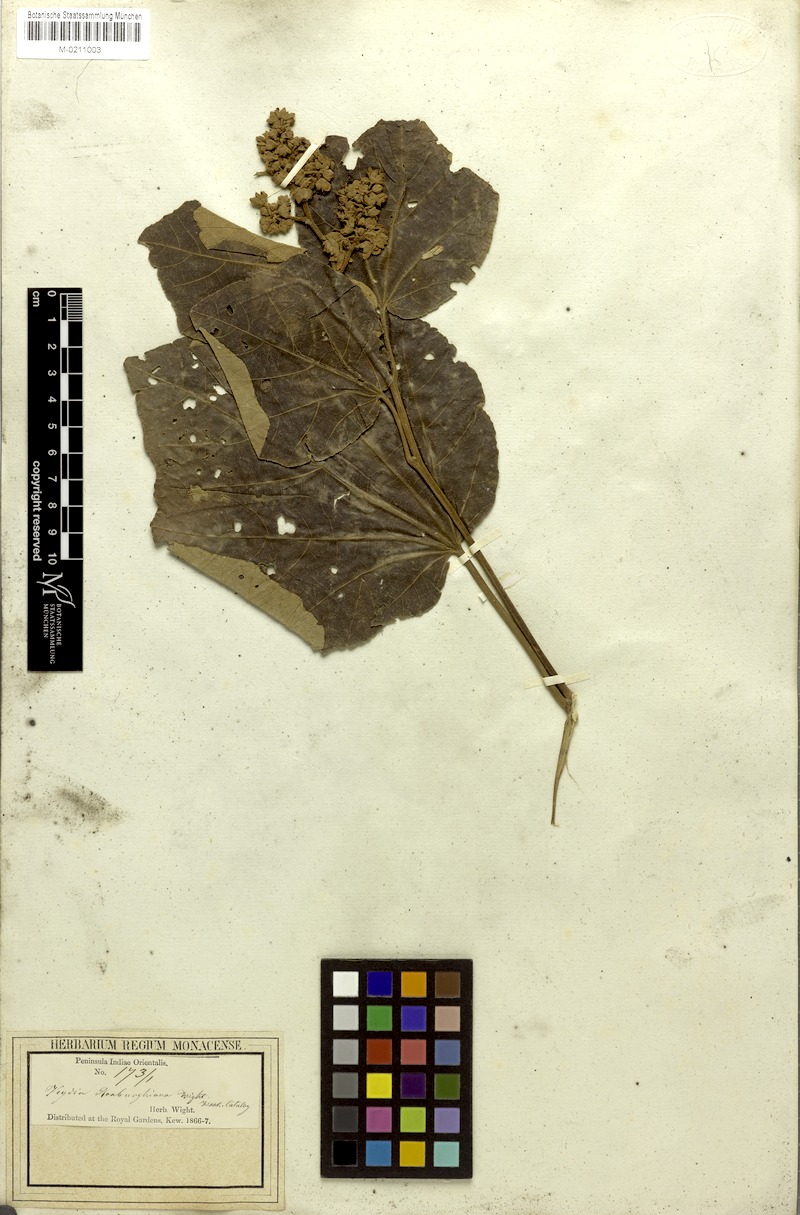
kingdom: Plantae
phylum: Tracheophyta
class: Magnoliopsida
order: Malvales
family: Malvaceae
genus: Kydia
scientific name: Kydia calycina
